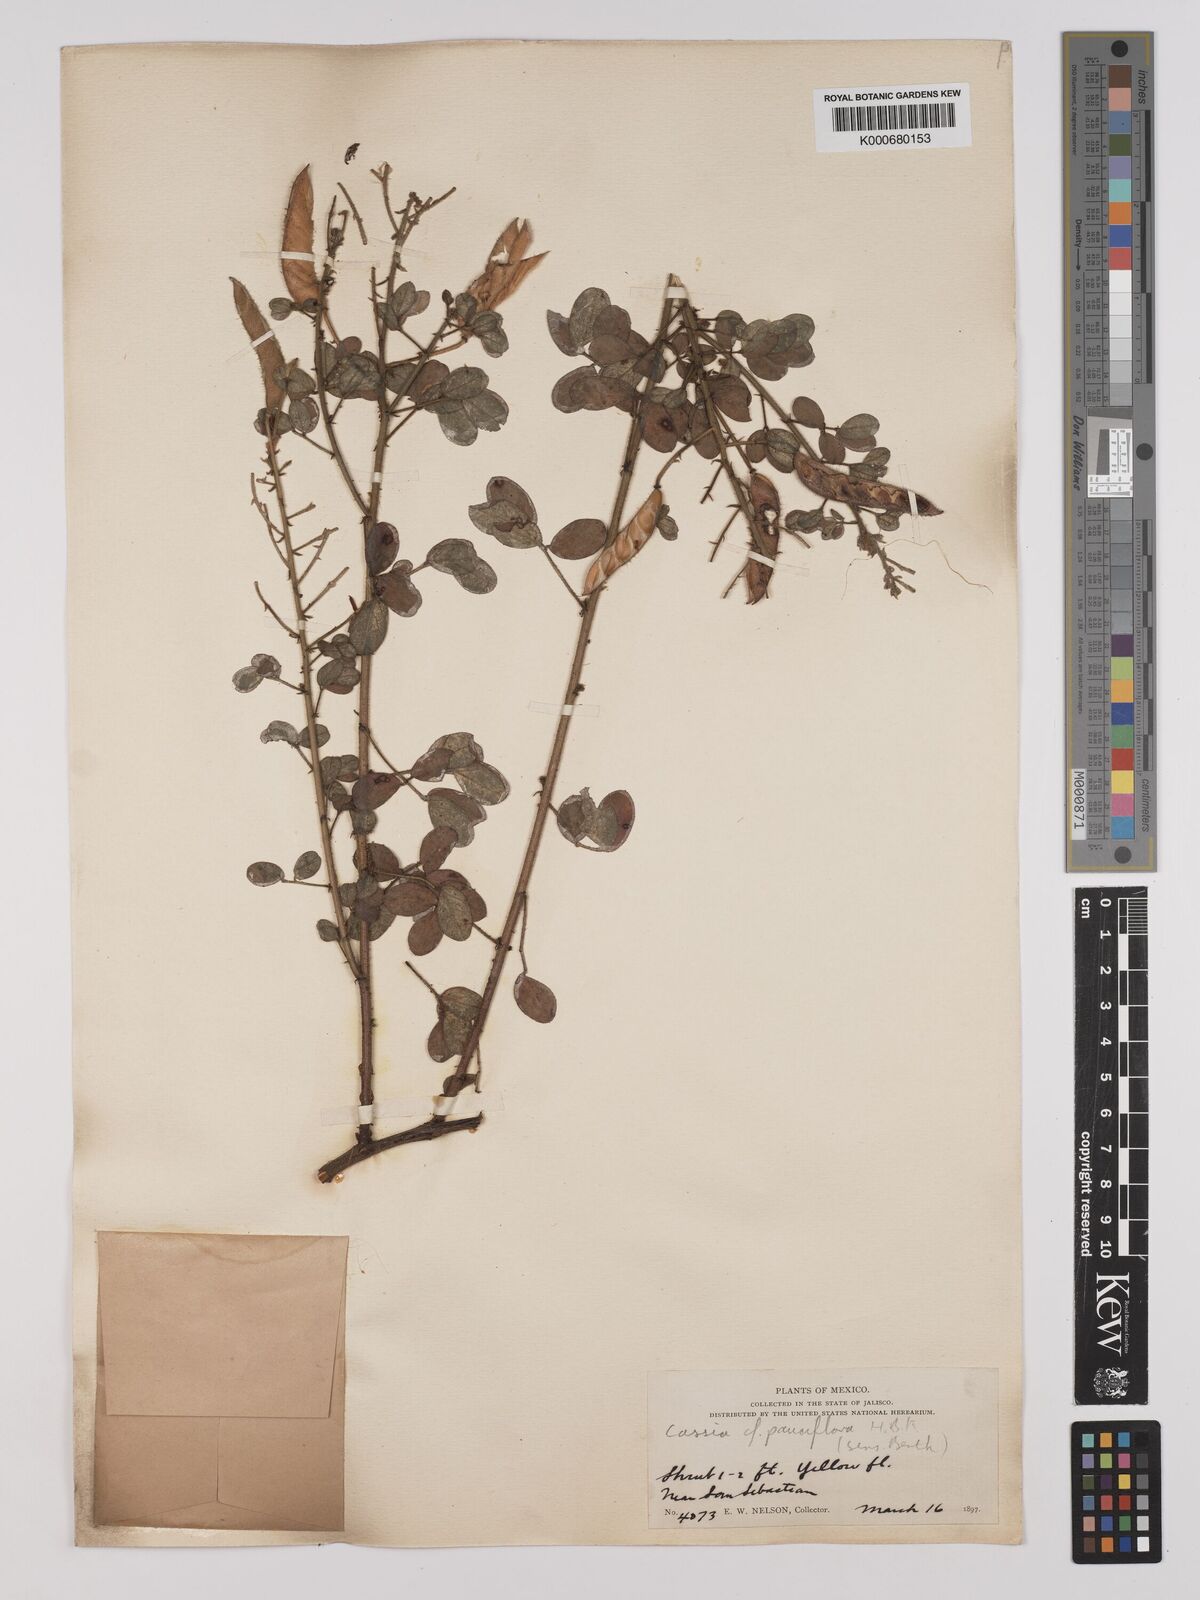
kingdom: Plantae
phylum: Tracheophyta
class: Magnoliopsida
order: Fabales
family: Fabaceae
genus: Chamaecrista
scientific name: Chamaecrista hispidula
